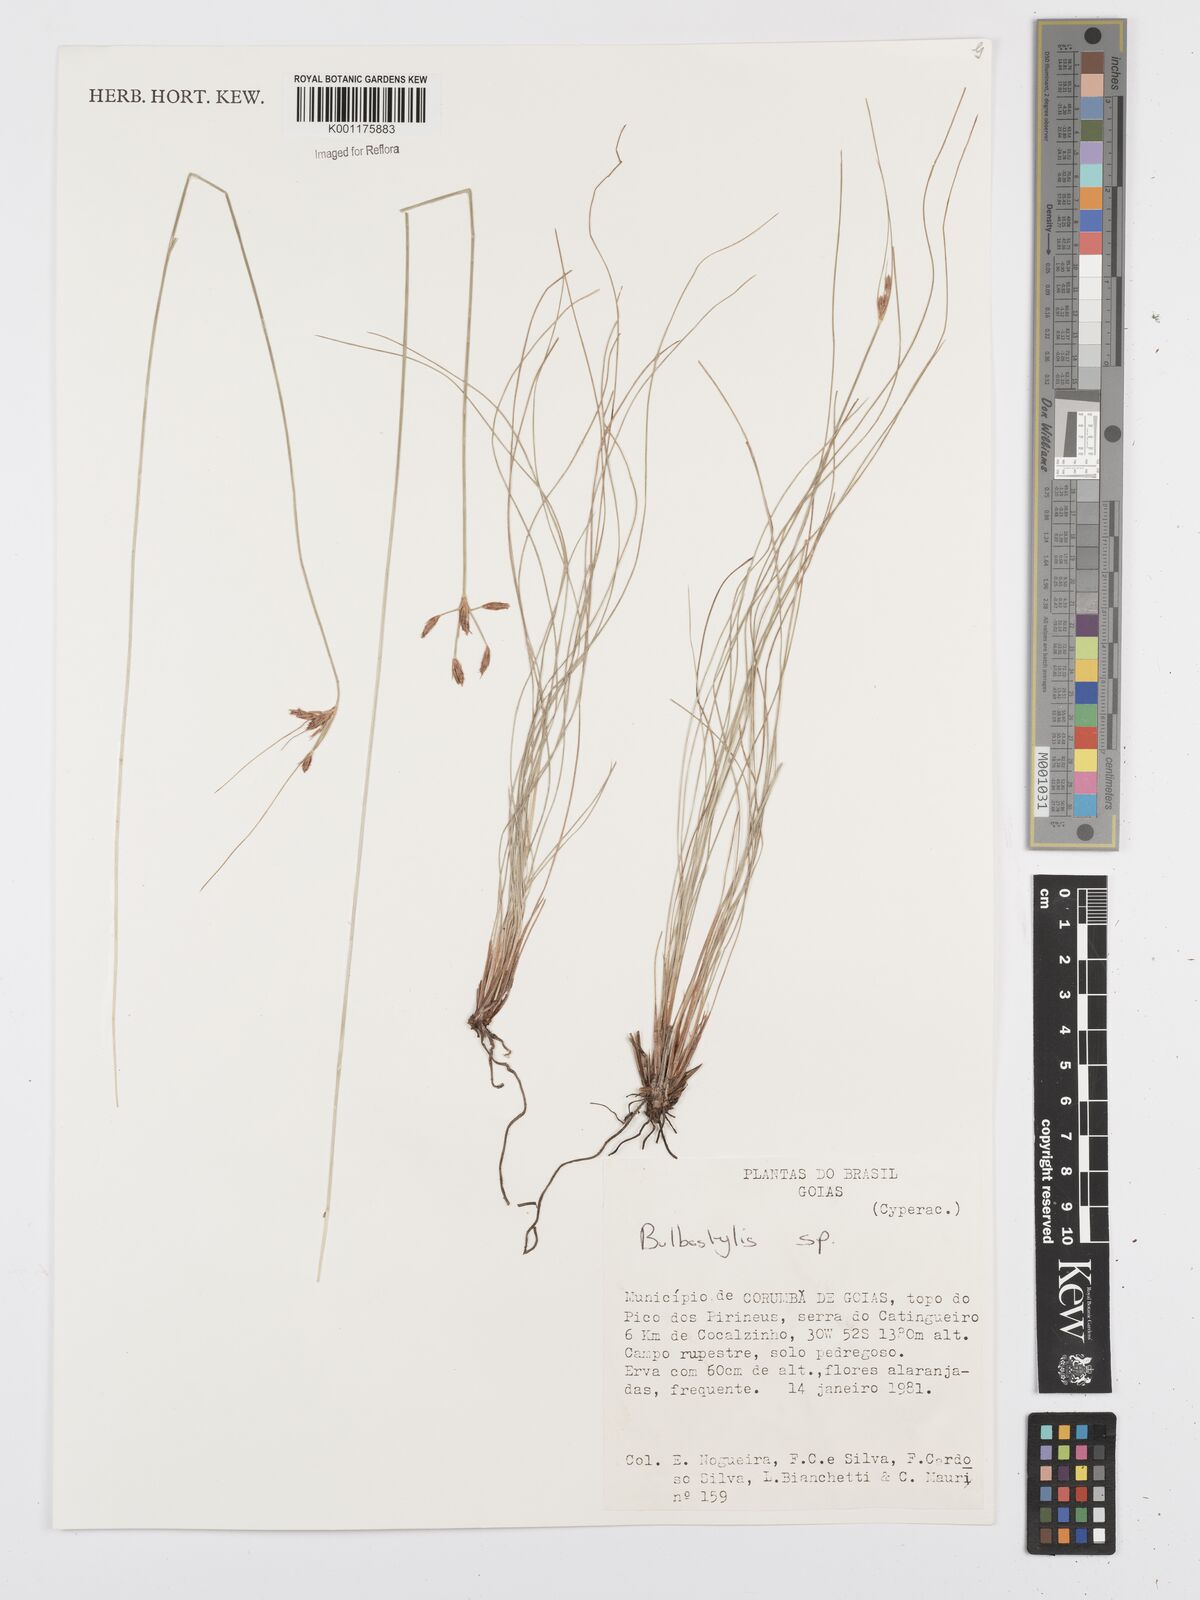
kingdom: Plantae
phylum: Tracheophyta
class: Liliopsida
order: Poales
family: Cyperaceae
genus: Bulbostylis
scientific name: Bulbostylis
